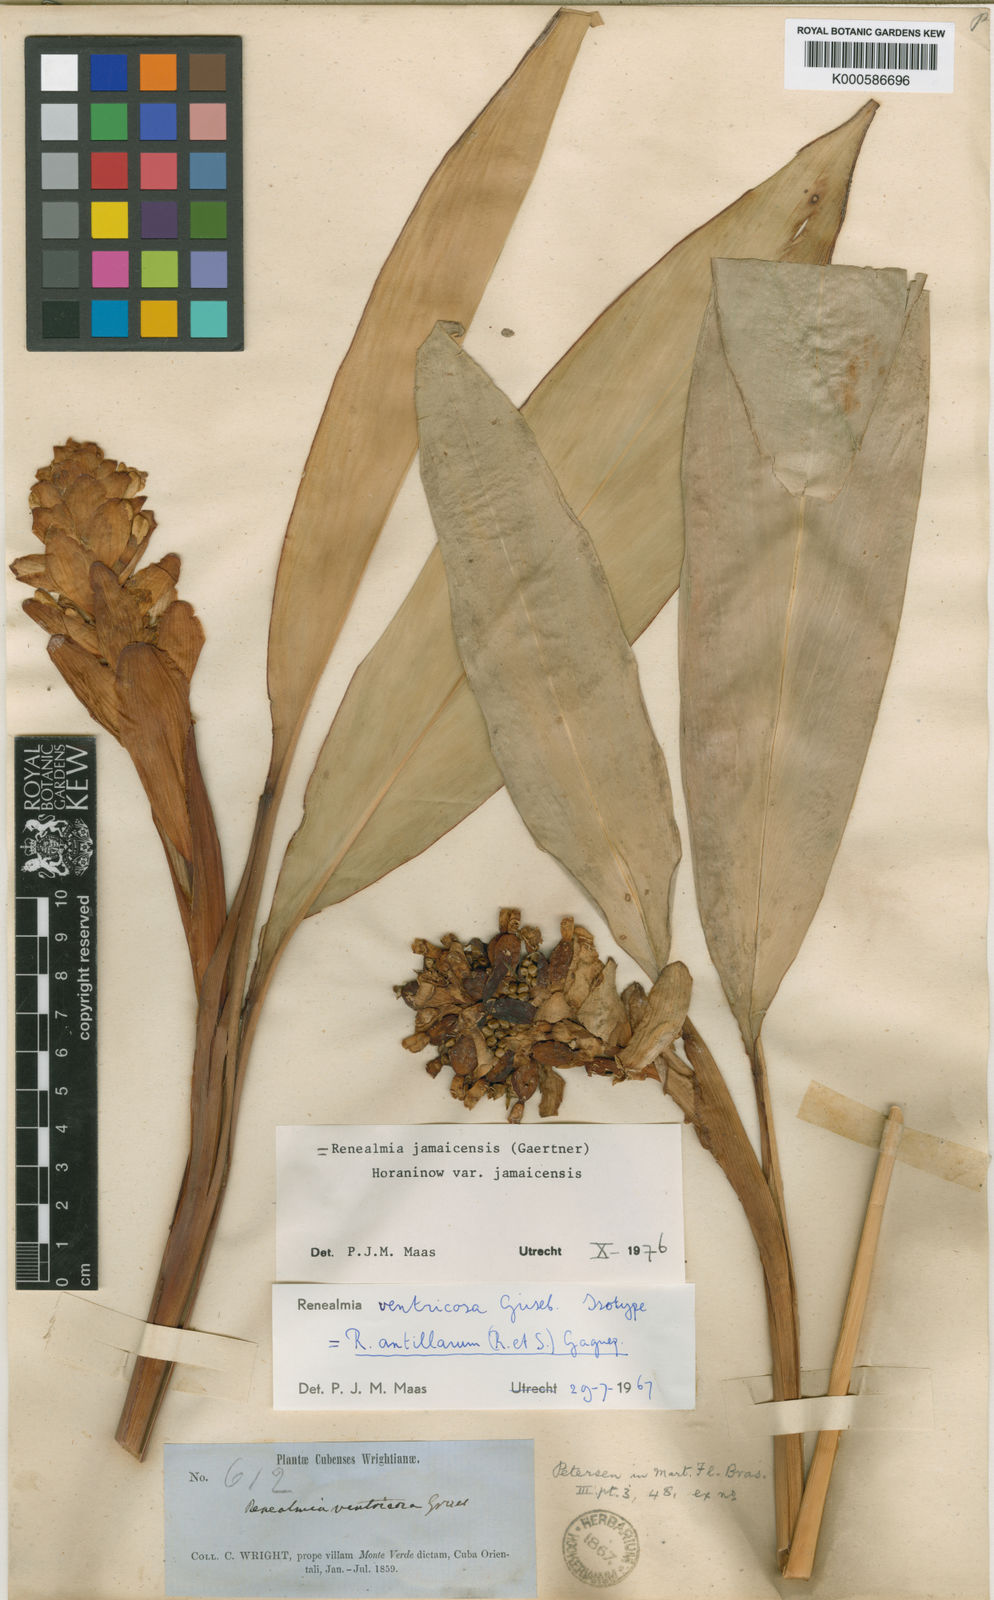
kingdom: Plantae
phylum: Tracheophyta
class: Liliopsida
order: Zingiberales
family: Zingiberaceae
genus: Renealmia
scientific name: Renealmia jamaicensis
